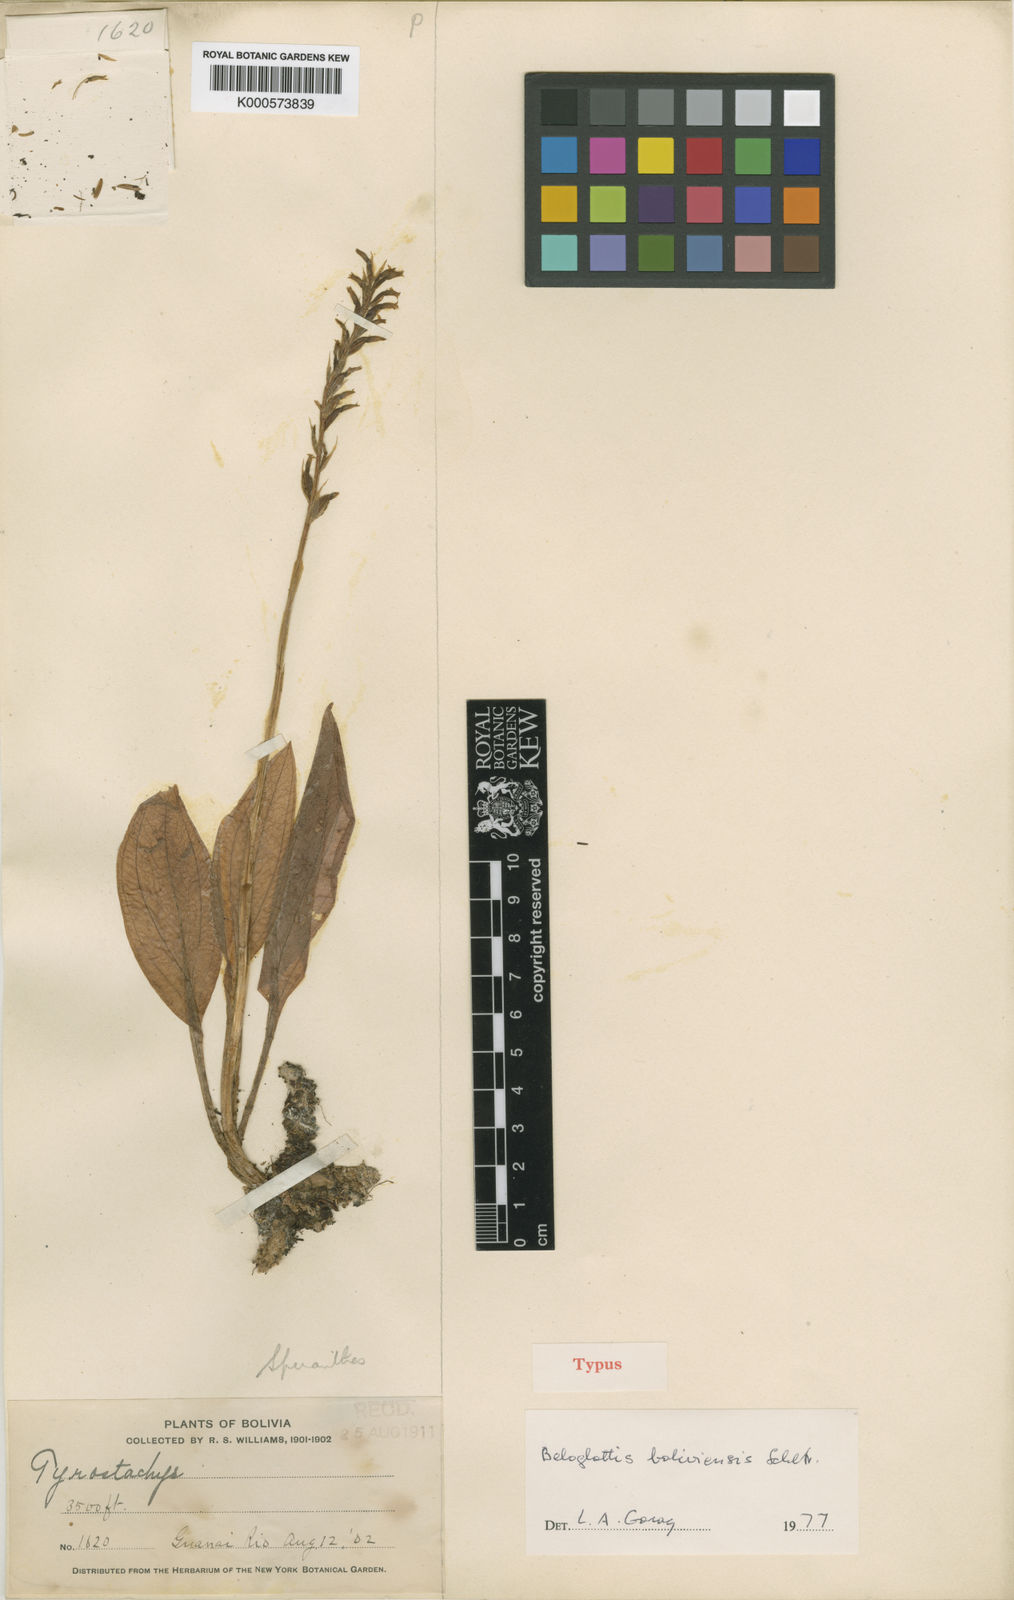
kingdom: Plantae
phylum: Tracheophyta
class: Liliopsida
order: Asparagales
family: Orchidaceae
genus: Beloglottis
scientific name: Beloglottis boliviensis
